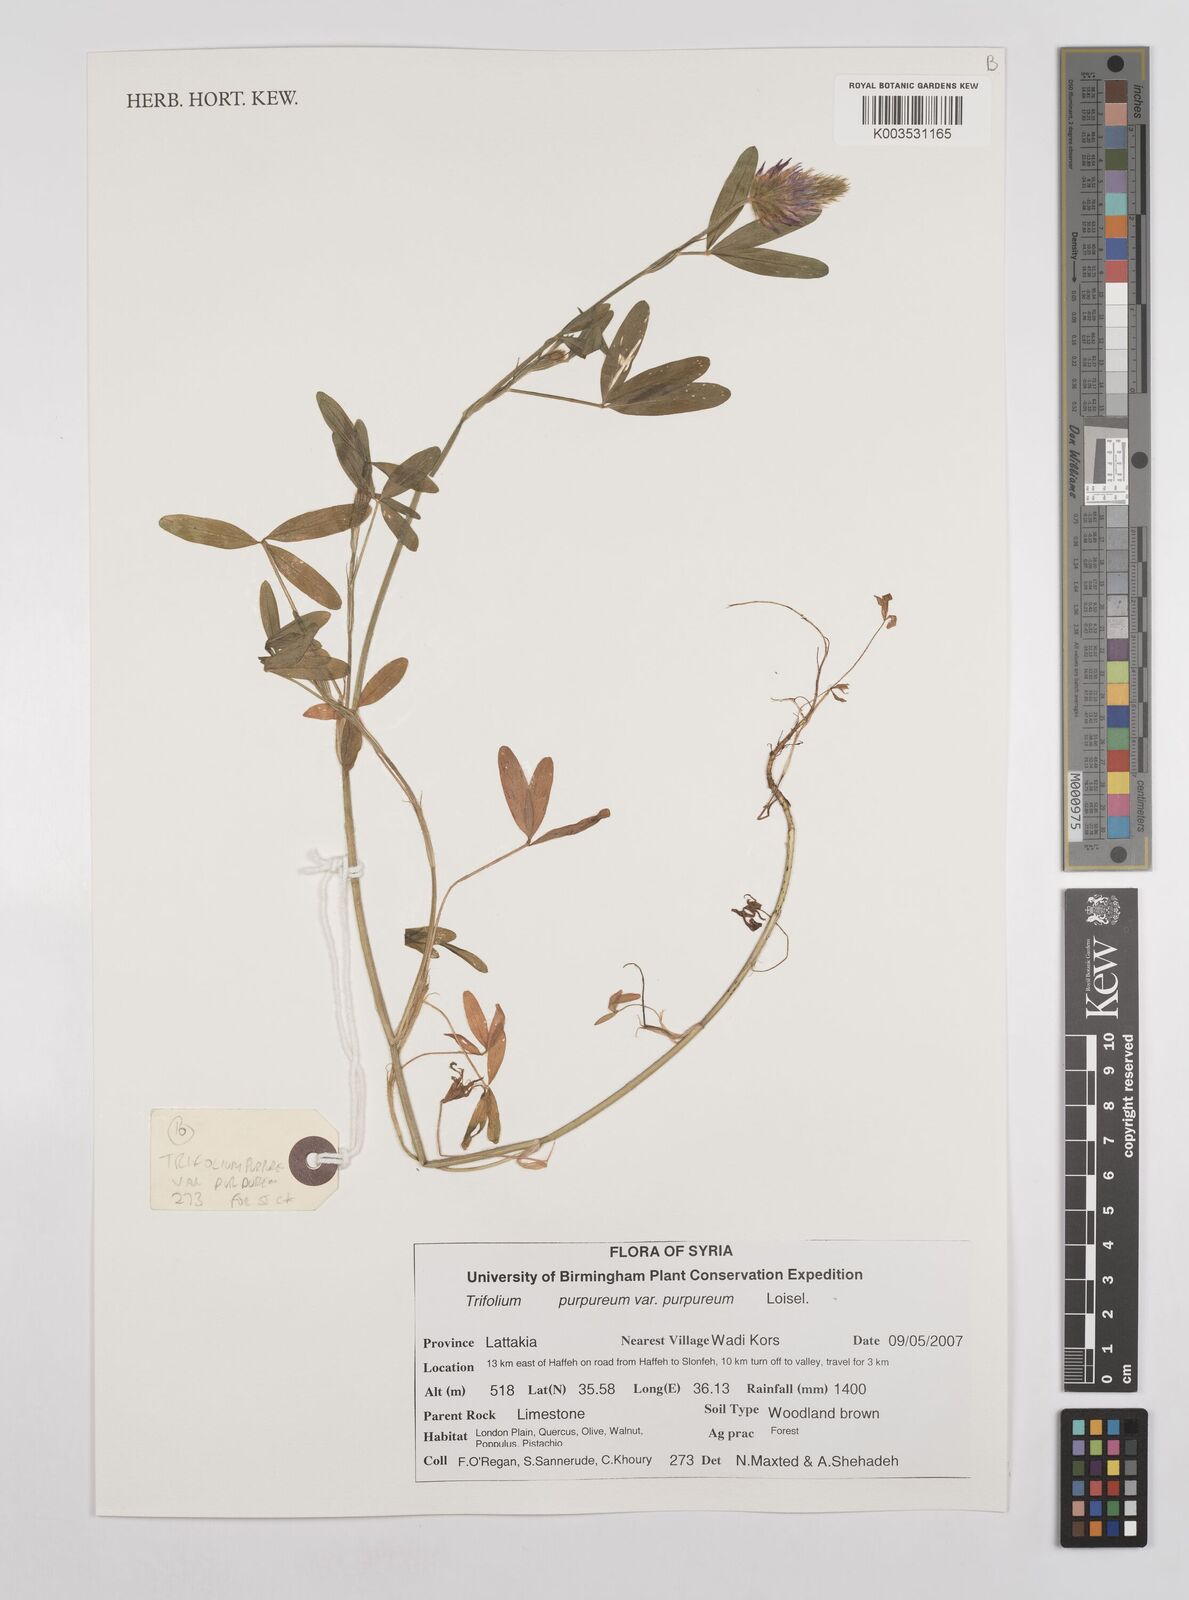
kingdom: Plantae
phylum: Tracheophyta
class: Magnoliopsida
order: Fabales
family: Fabaceae
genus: Trifolium
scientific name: Trifolium purpureum
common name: Purple clover
